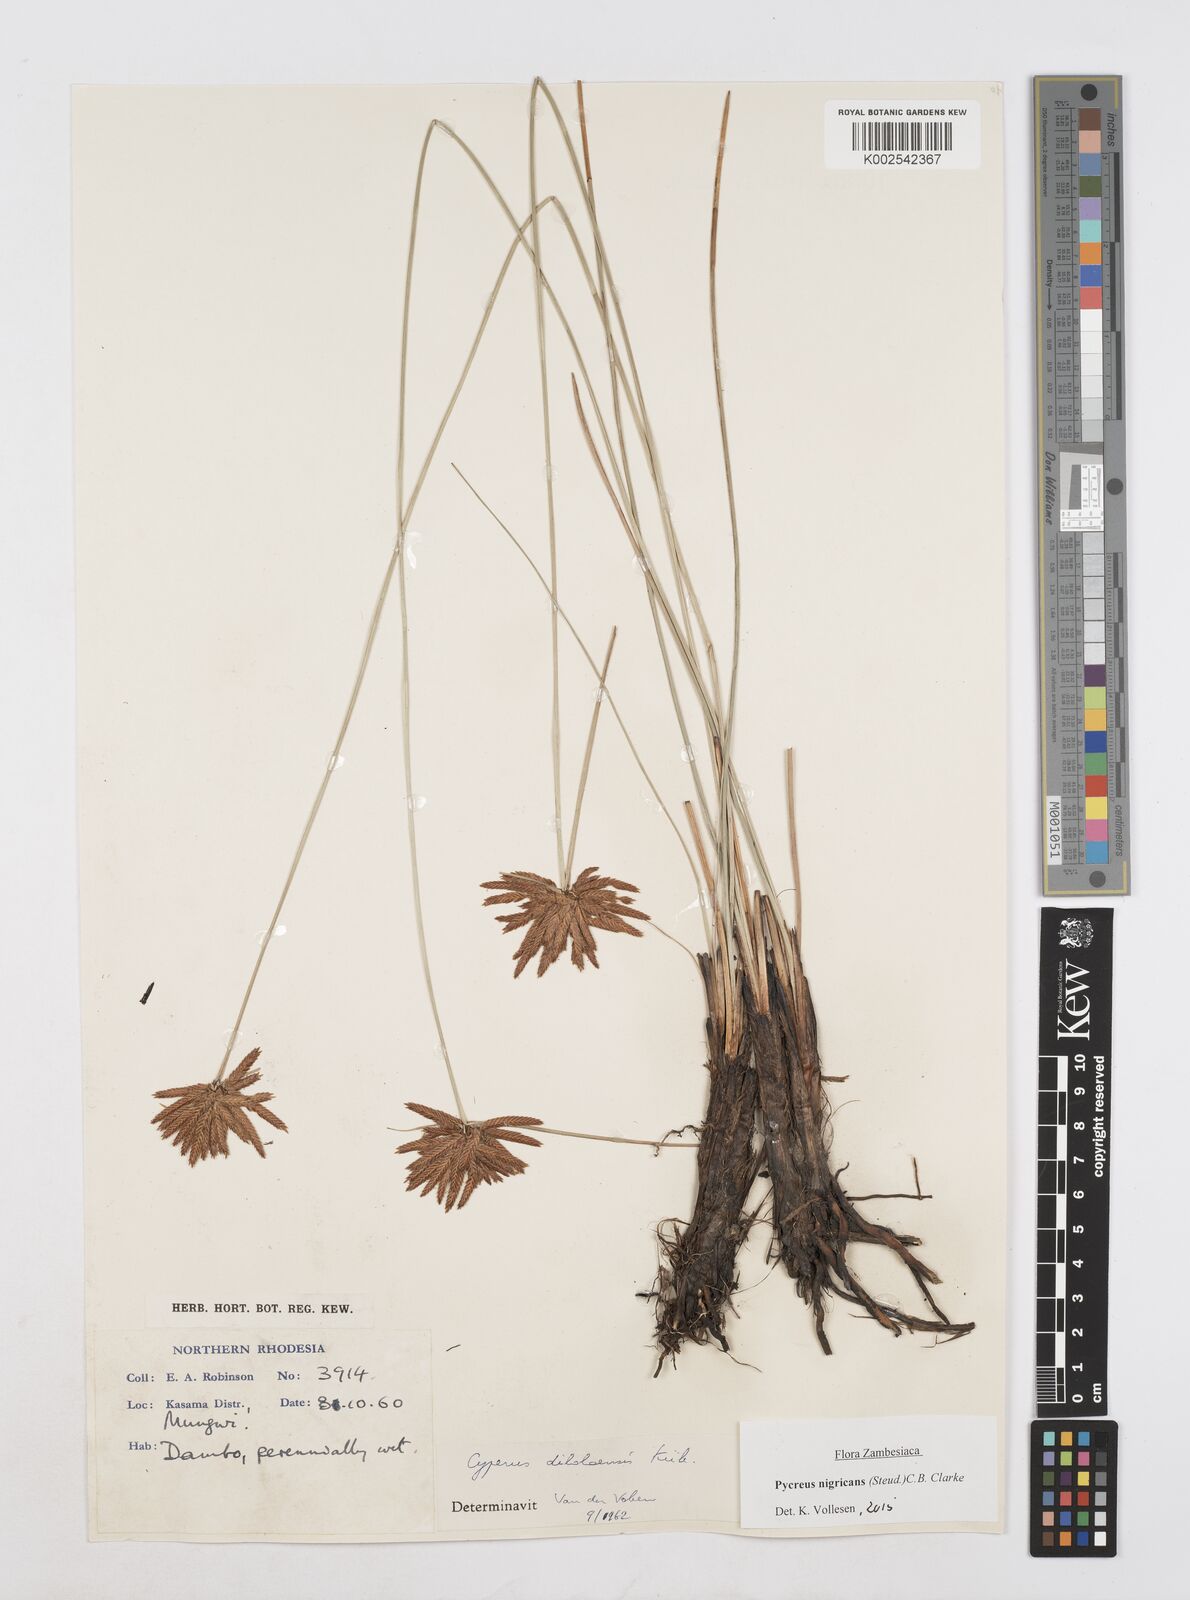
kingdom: Plantae
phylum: Tracheophyta
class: Liliopsida
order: Poales
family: Cyperaceae
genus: Cyperus
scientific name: Cyperus nigricans
